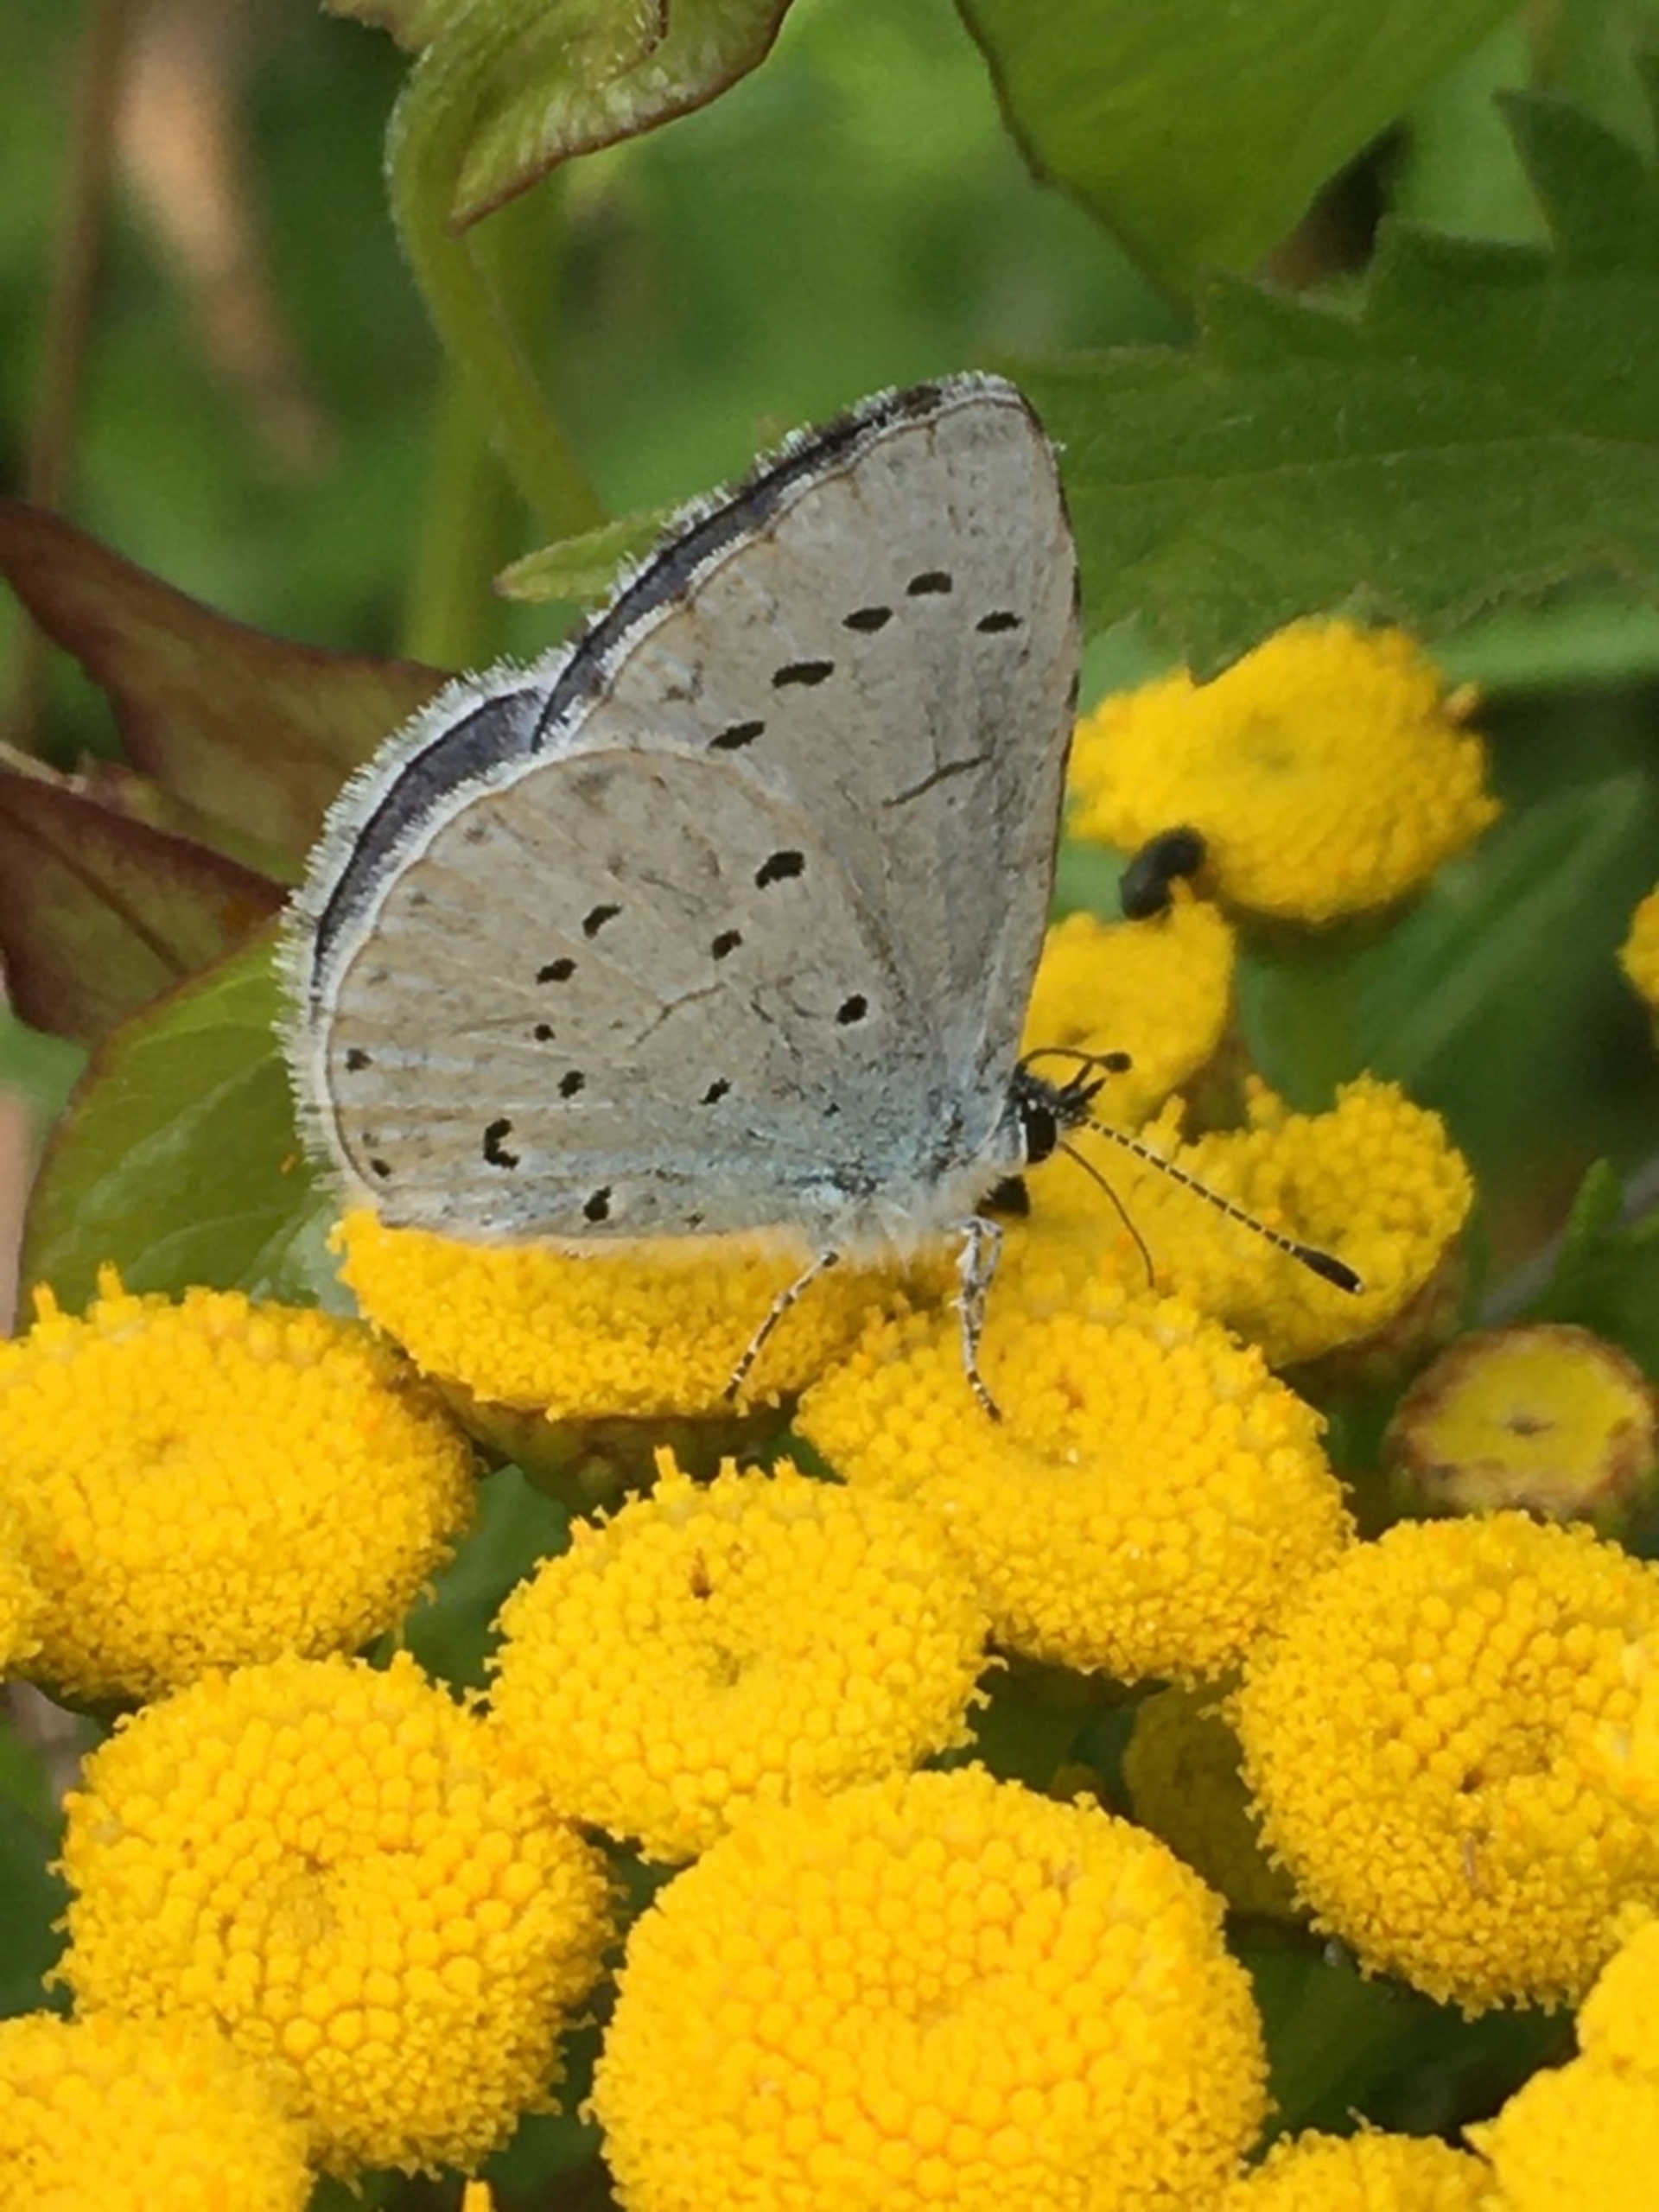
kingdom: Animalia
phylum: Arthropoda
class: Insecta
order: Lepidoptera
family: Lycaenidae
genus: Celastrina
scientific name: Celastrina argiolus
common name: Skovblåfugl
